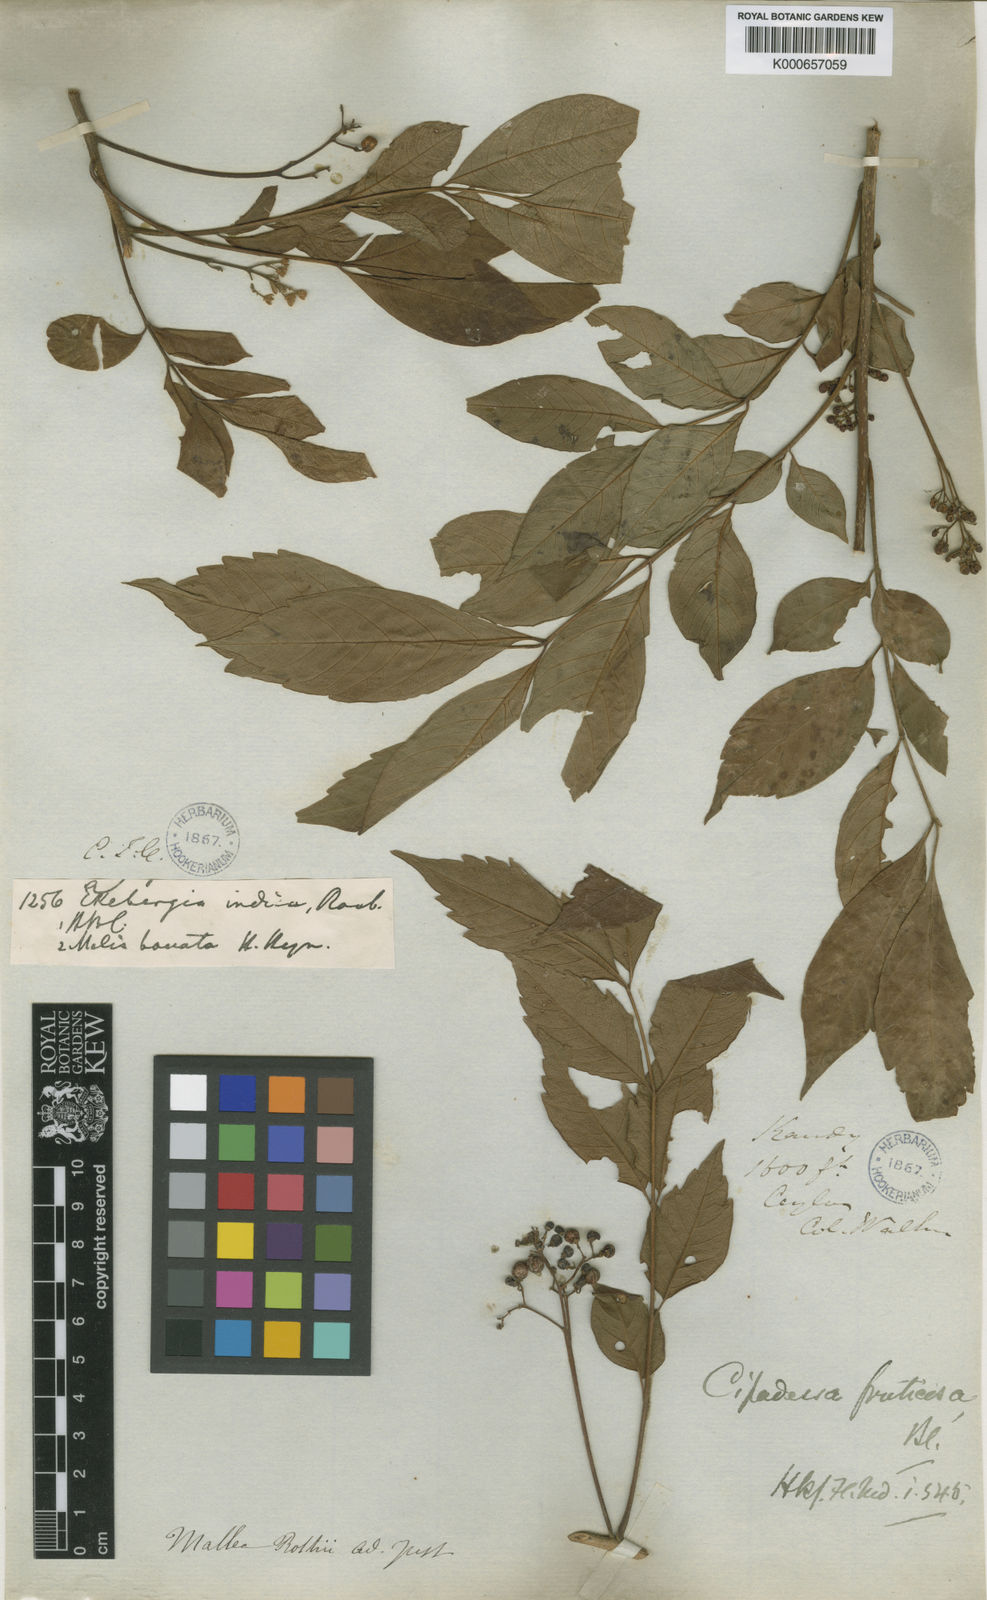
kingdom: Plantae
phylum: Tracheophyta
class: Magnoliopsida
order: Sapindales
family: Meliaceae
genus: Cipadessa
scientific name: Cipadessa baccifera
